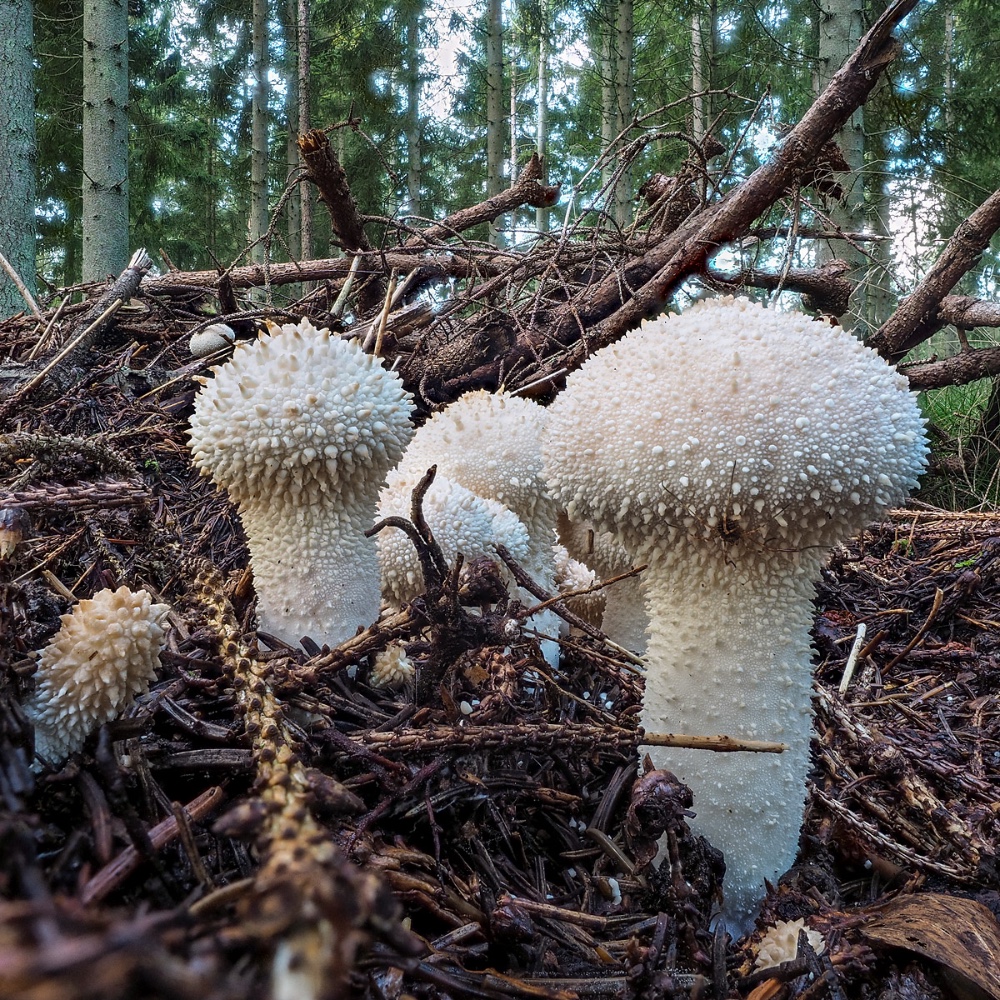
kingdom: Fungi
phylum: Basidiomycota
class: Agaricomycetes
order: Agaricales
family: Lycoperdaceae
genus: Lycoperdon
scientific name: Lycoperdon perlatum
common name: krystal-støvbold
